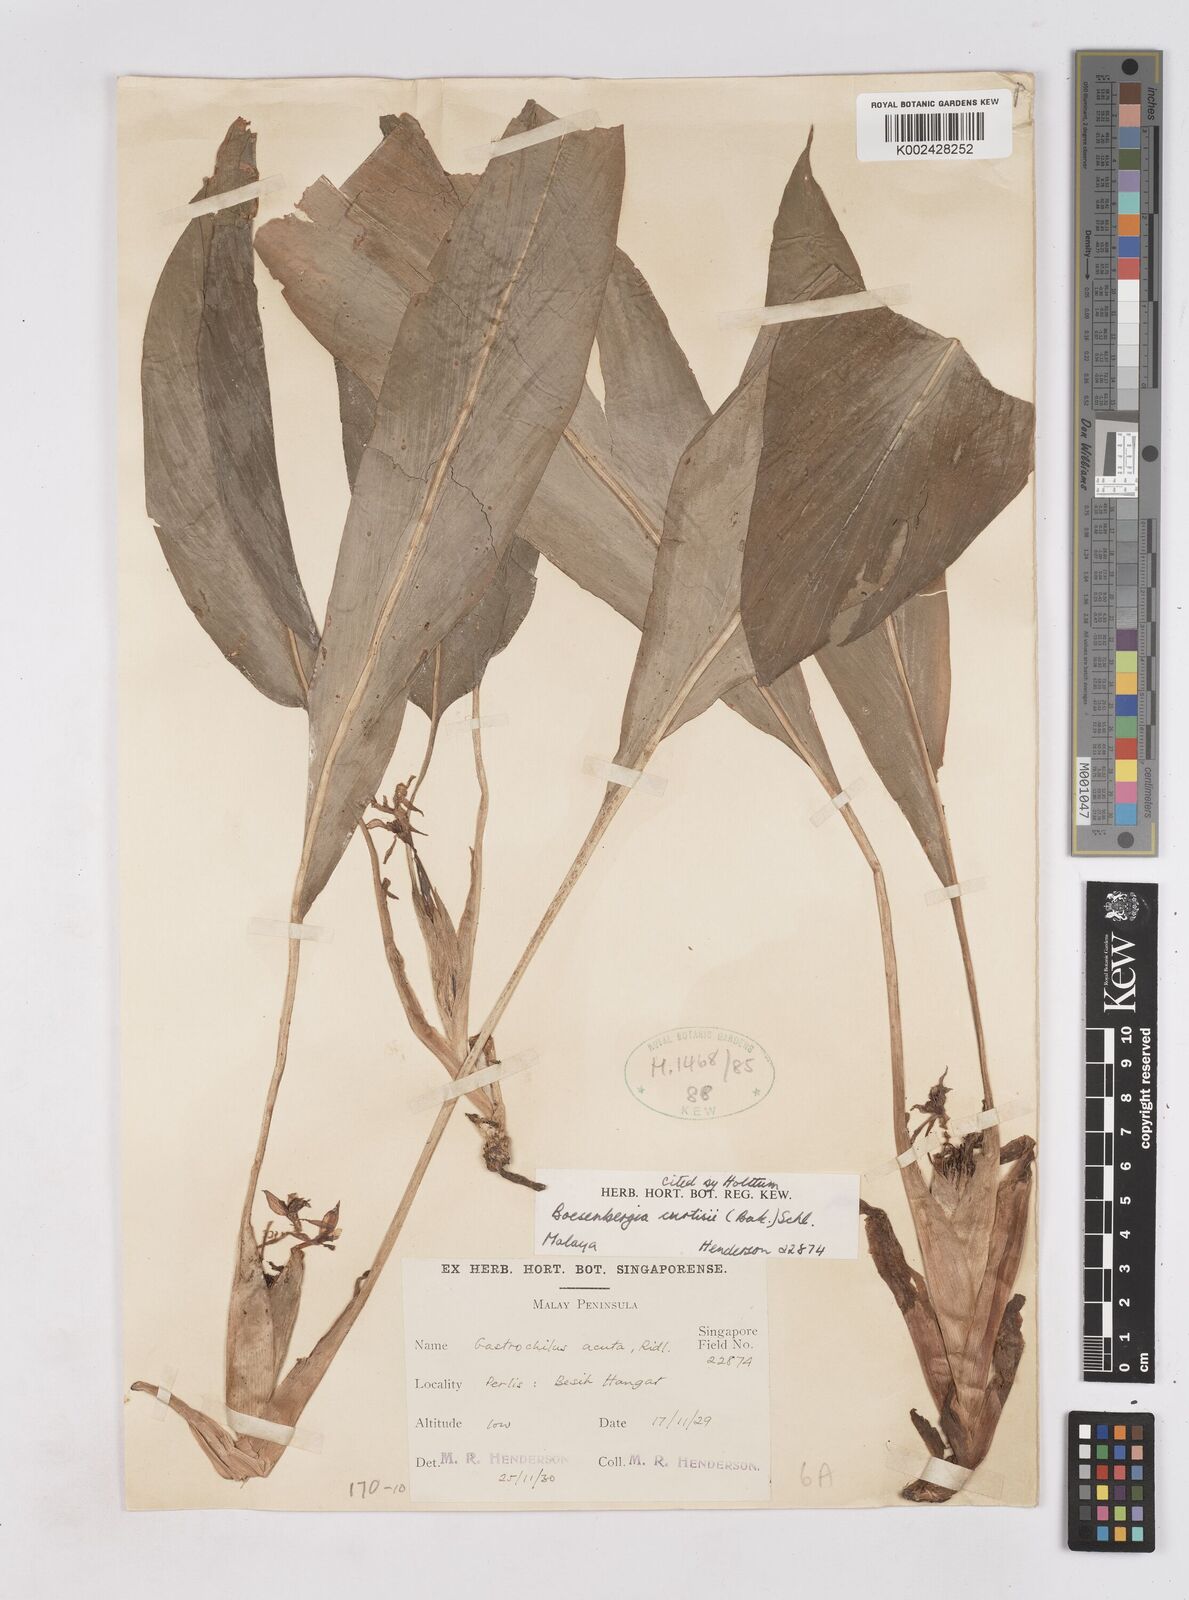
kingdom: Plantae
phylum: Tracheophyta
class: Liliopsida
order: Zingiberales
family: Zingiberaceae
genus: Boesenbergia
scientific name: Boesenbergia curtisii
